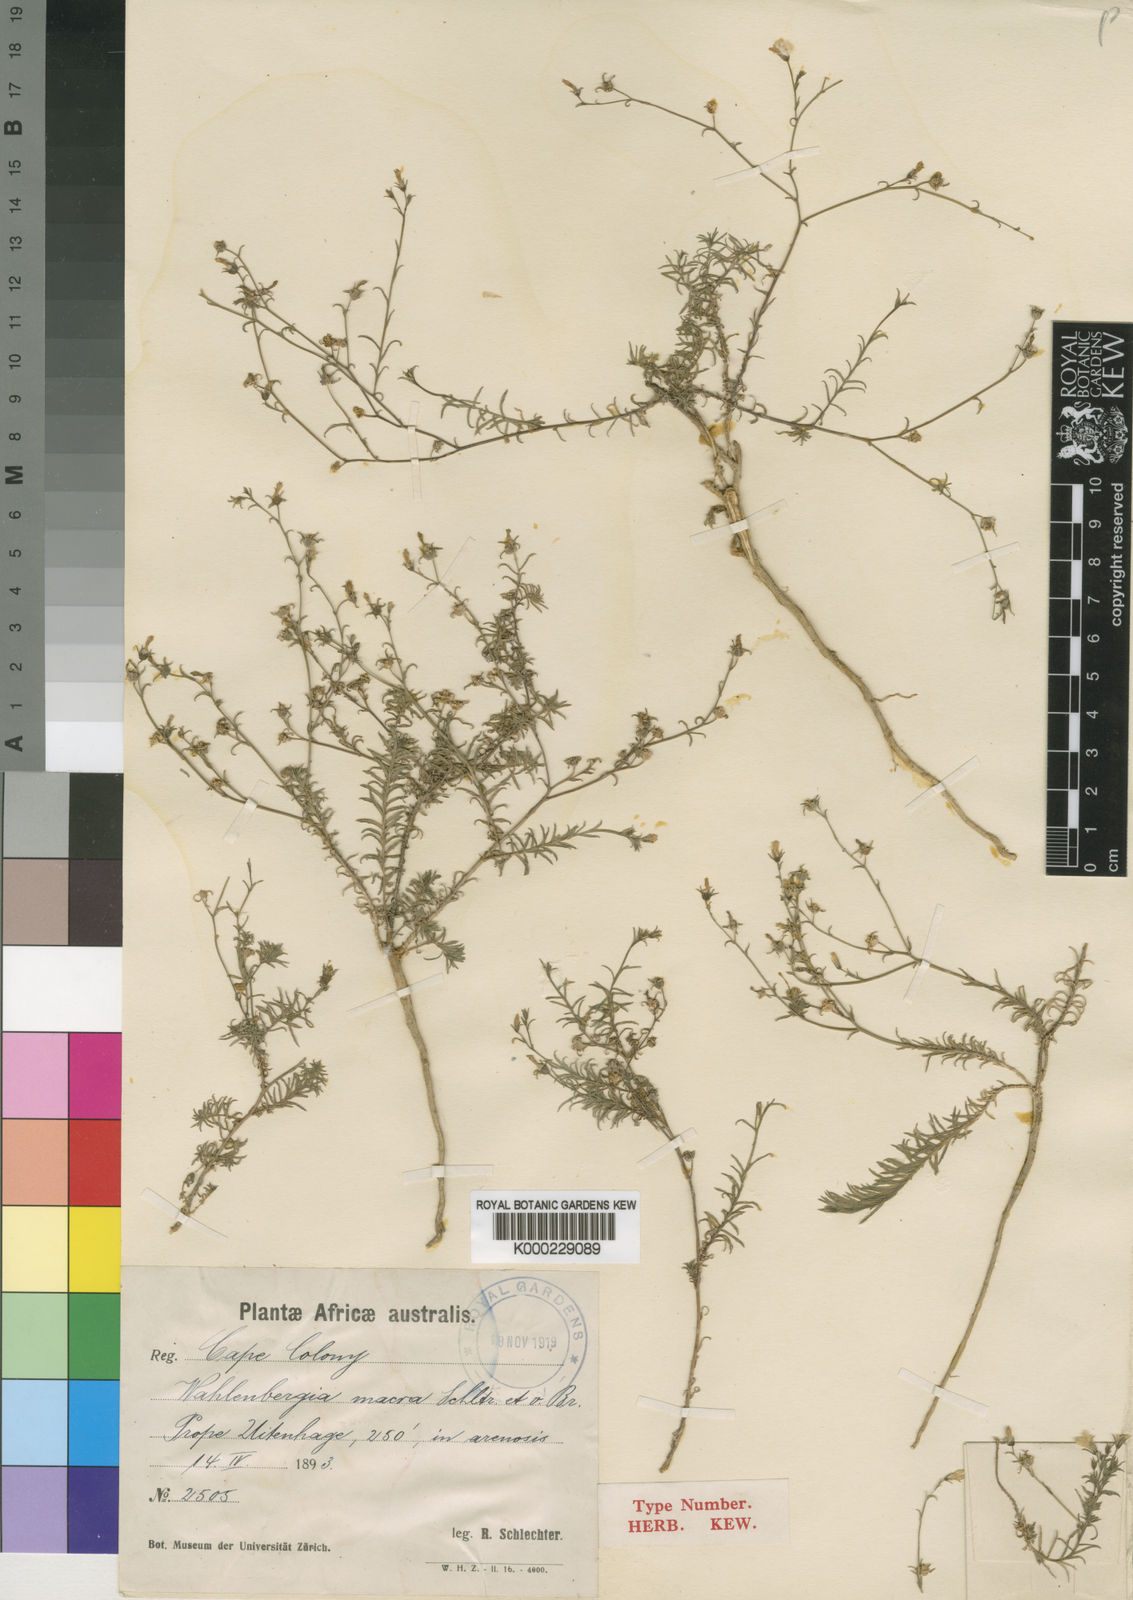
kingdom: Plantae
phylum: Tracheophyta
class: Magnoliopsida
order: Asterales
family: Campanulaceae
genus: Wahlenbergia
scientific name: Wahlenbergia ecklonii
